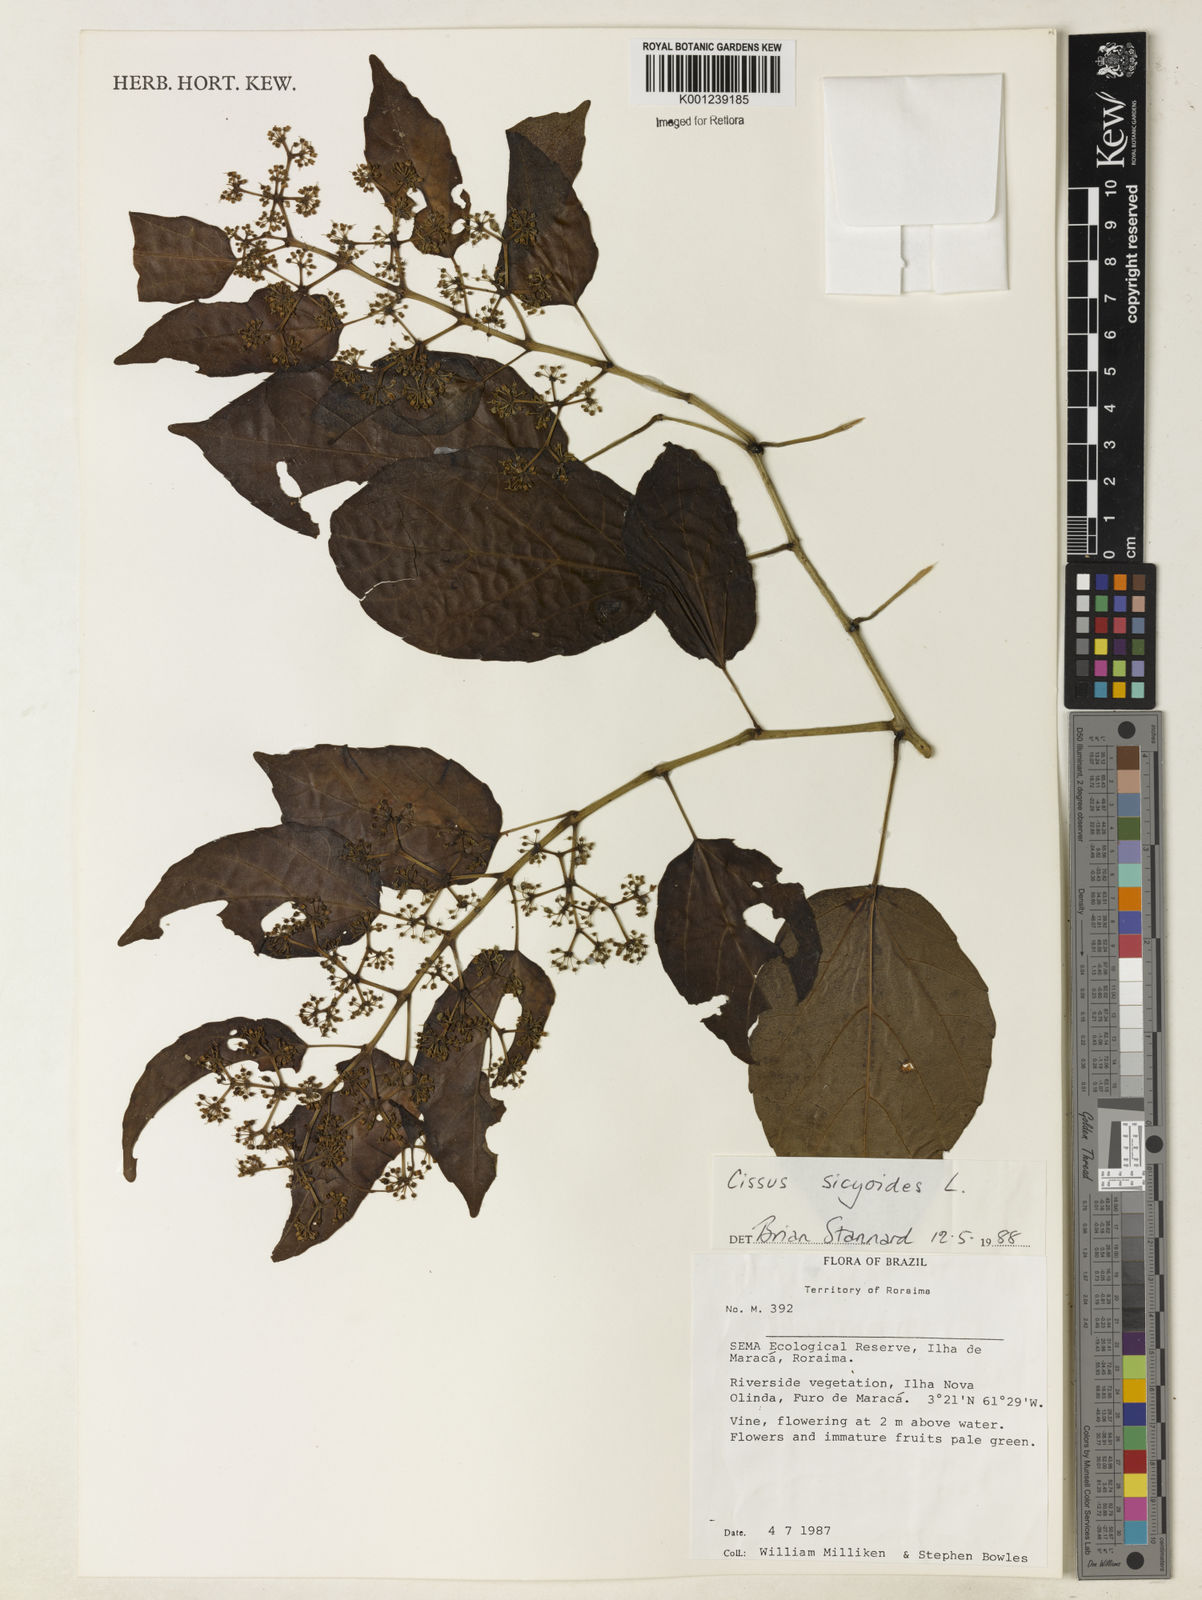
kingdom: Plantae
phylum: Tracheophyta
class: Magnoliopsida
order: Vitales
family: Vitaceae
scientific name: Vitaceae
